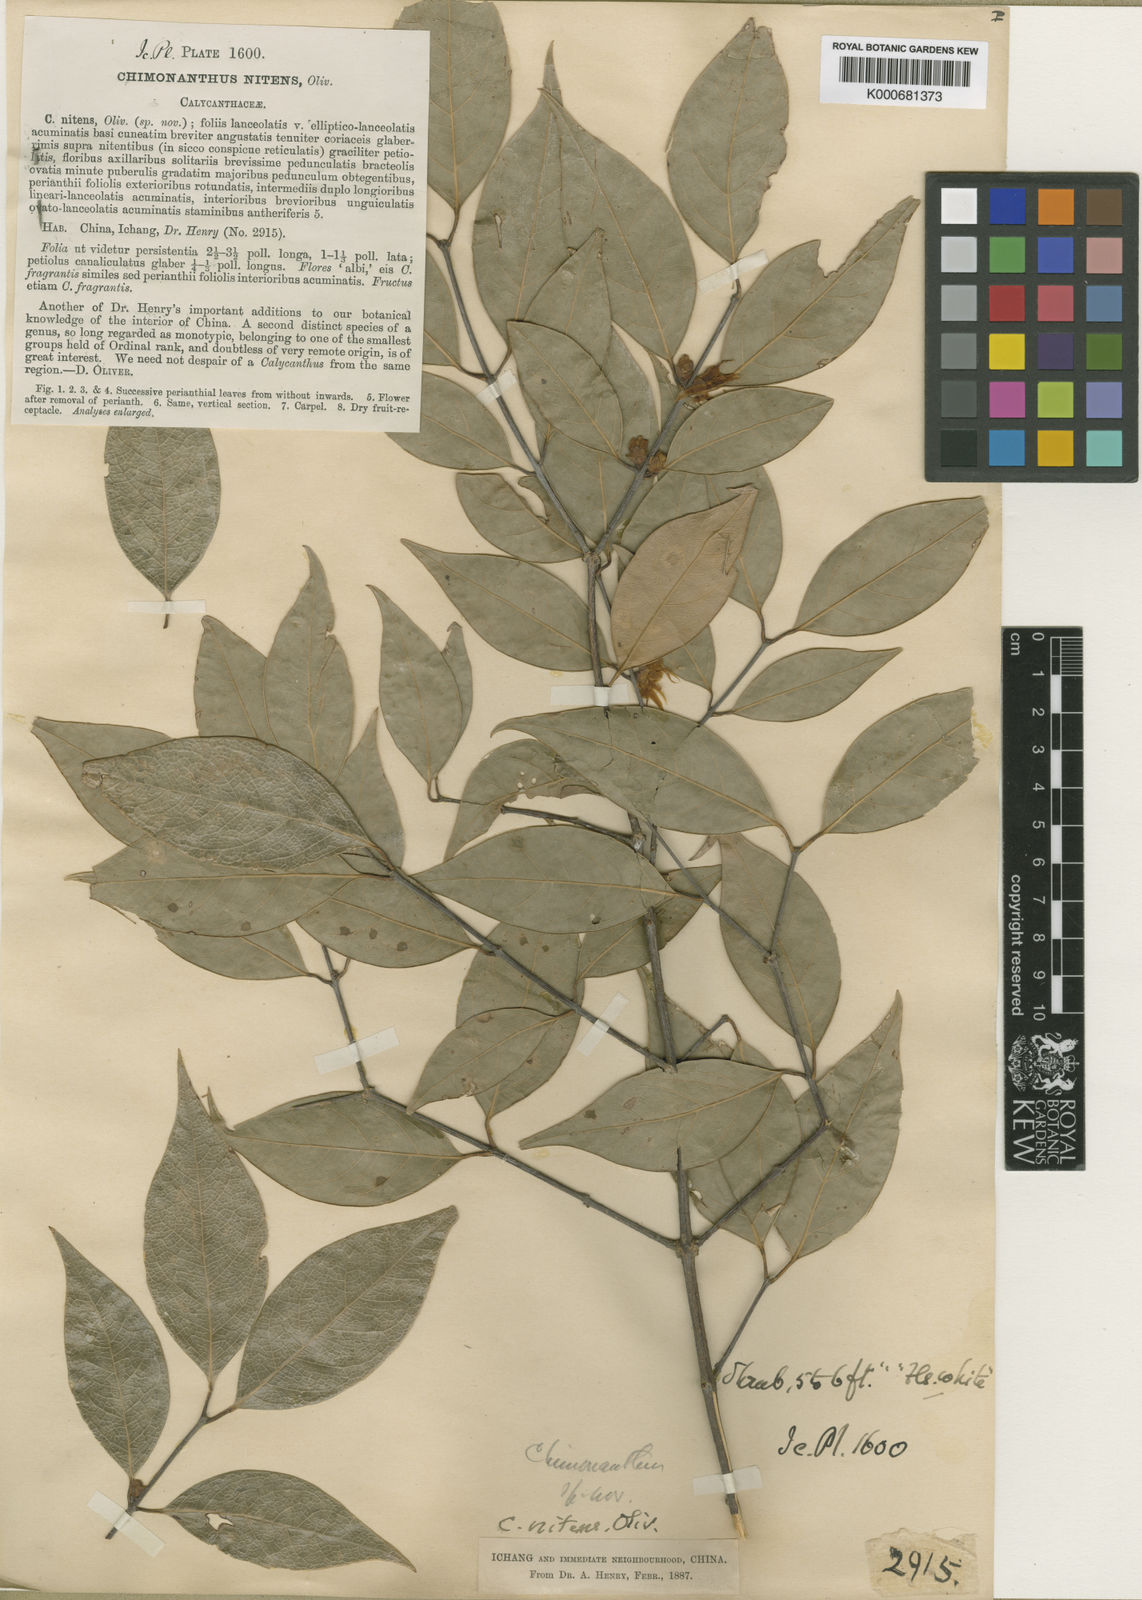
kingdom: Plantae
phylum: Tracheophyta
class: Magnoliopsida
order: Laurales
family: Calycanthaceae
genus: Chimonanthus
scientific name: Chimonanthus nitens
